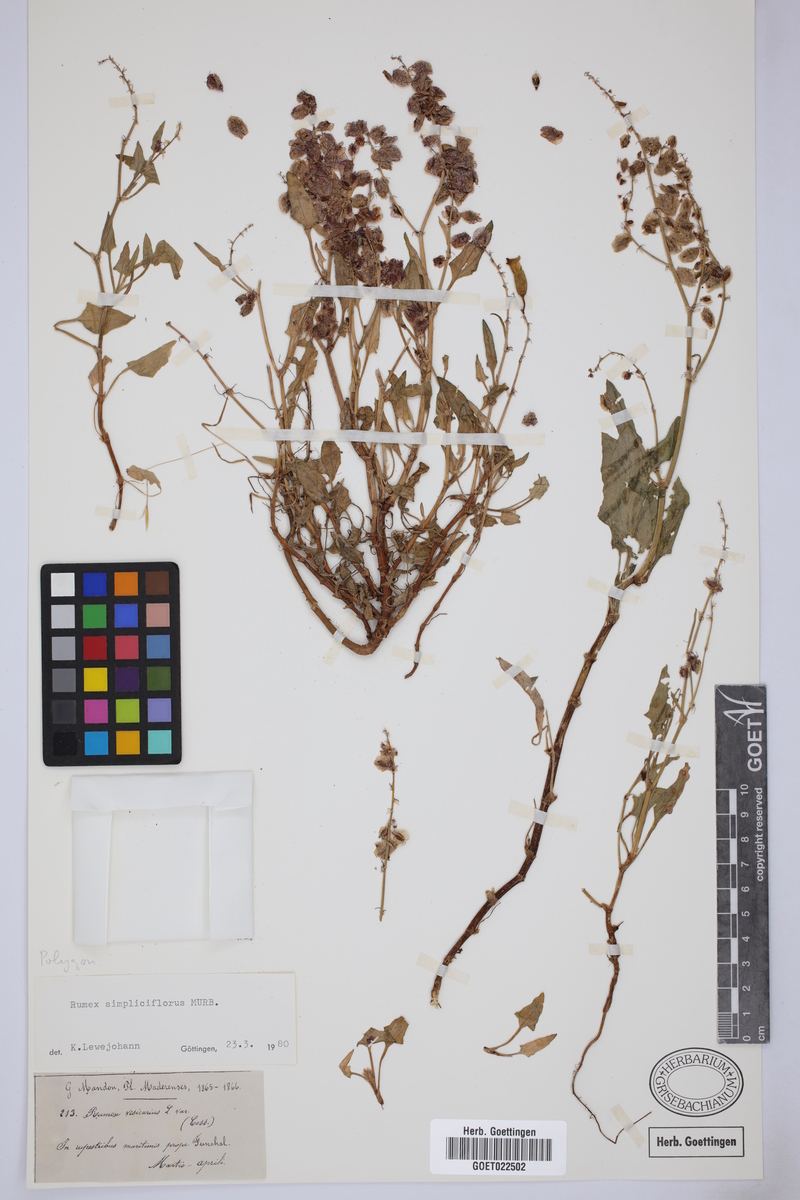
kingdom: Plantae
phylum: Tracheophyta
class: Magnoliopsida
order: Caryophyllales
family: Polygonaceae
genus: Rumex
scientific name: Rumex simpliciflorus
